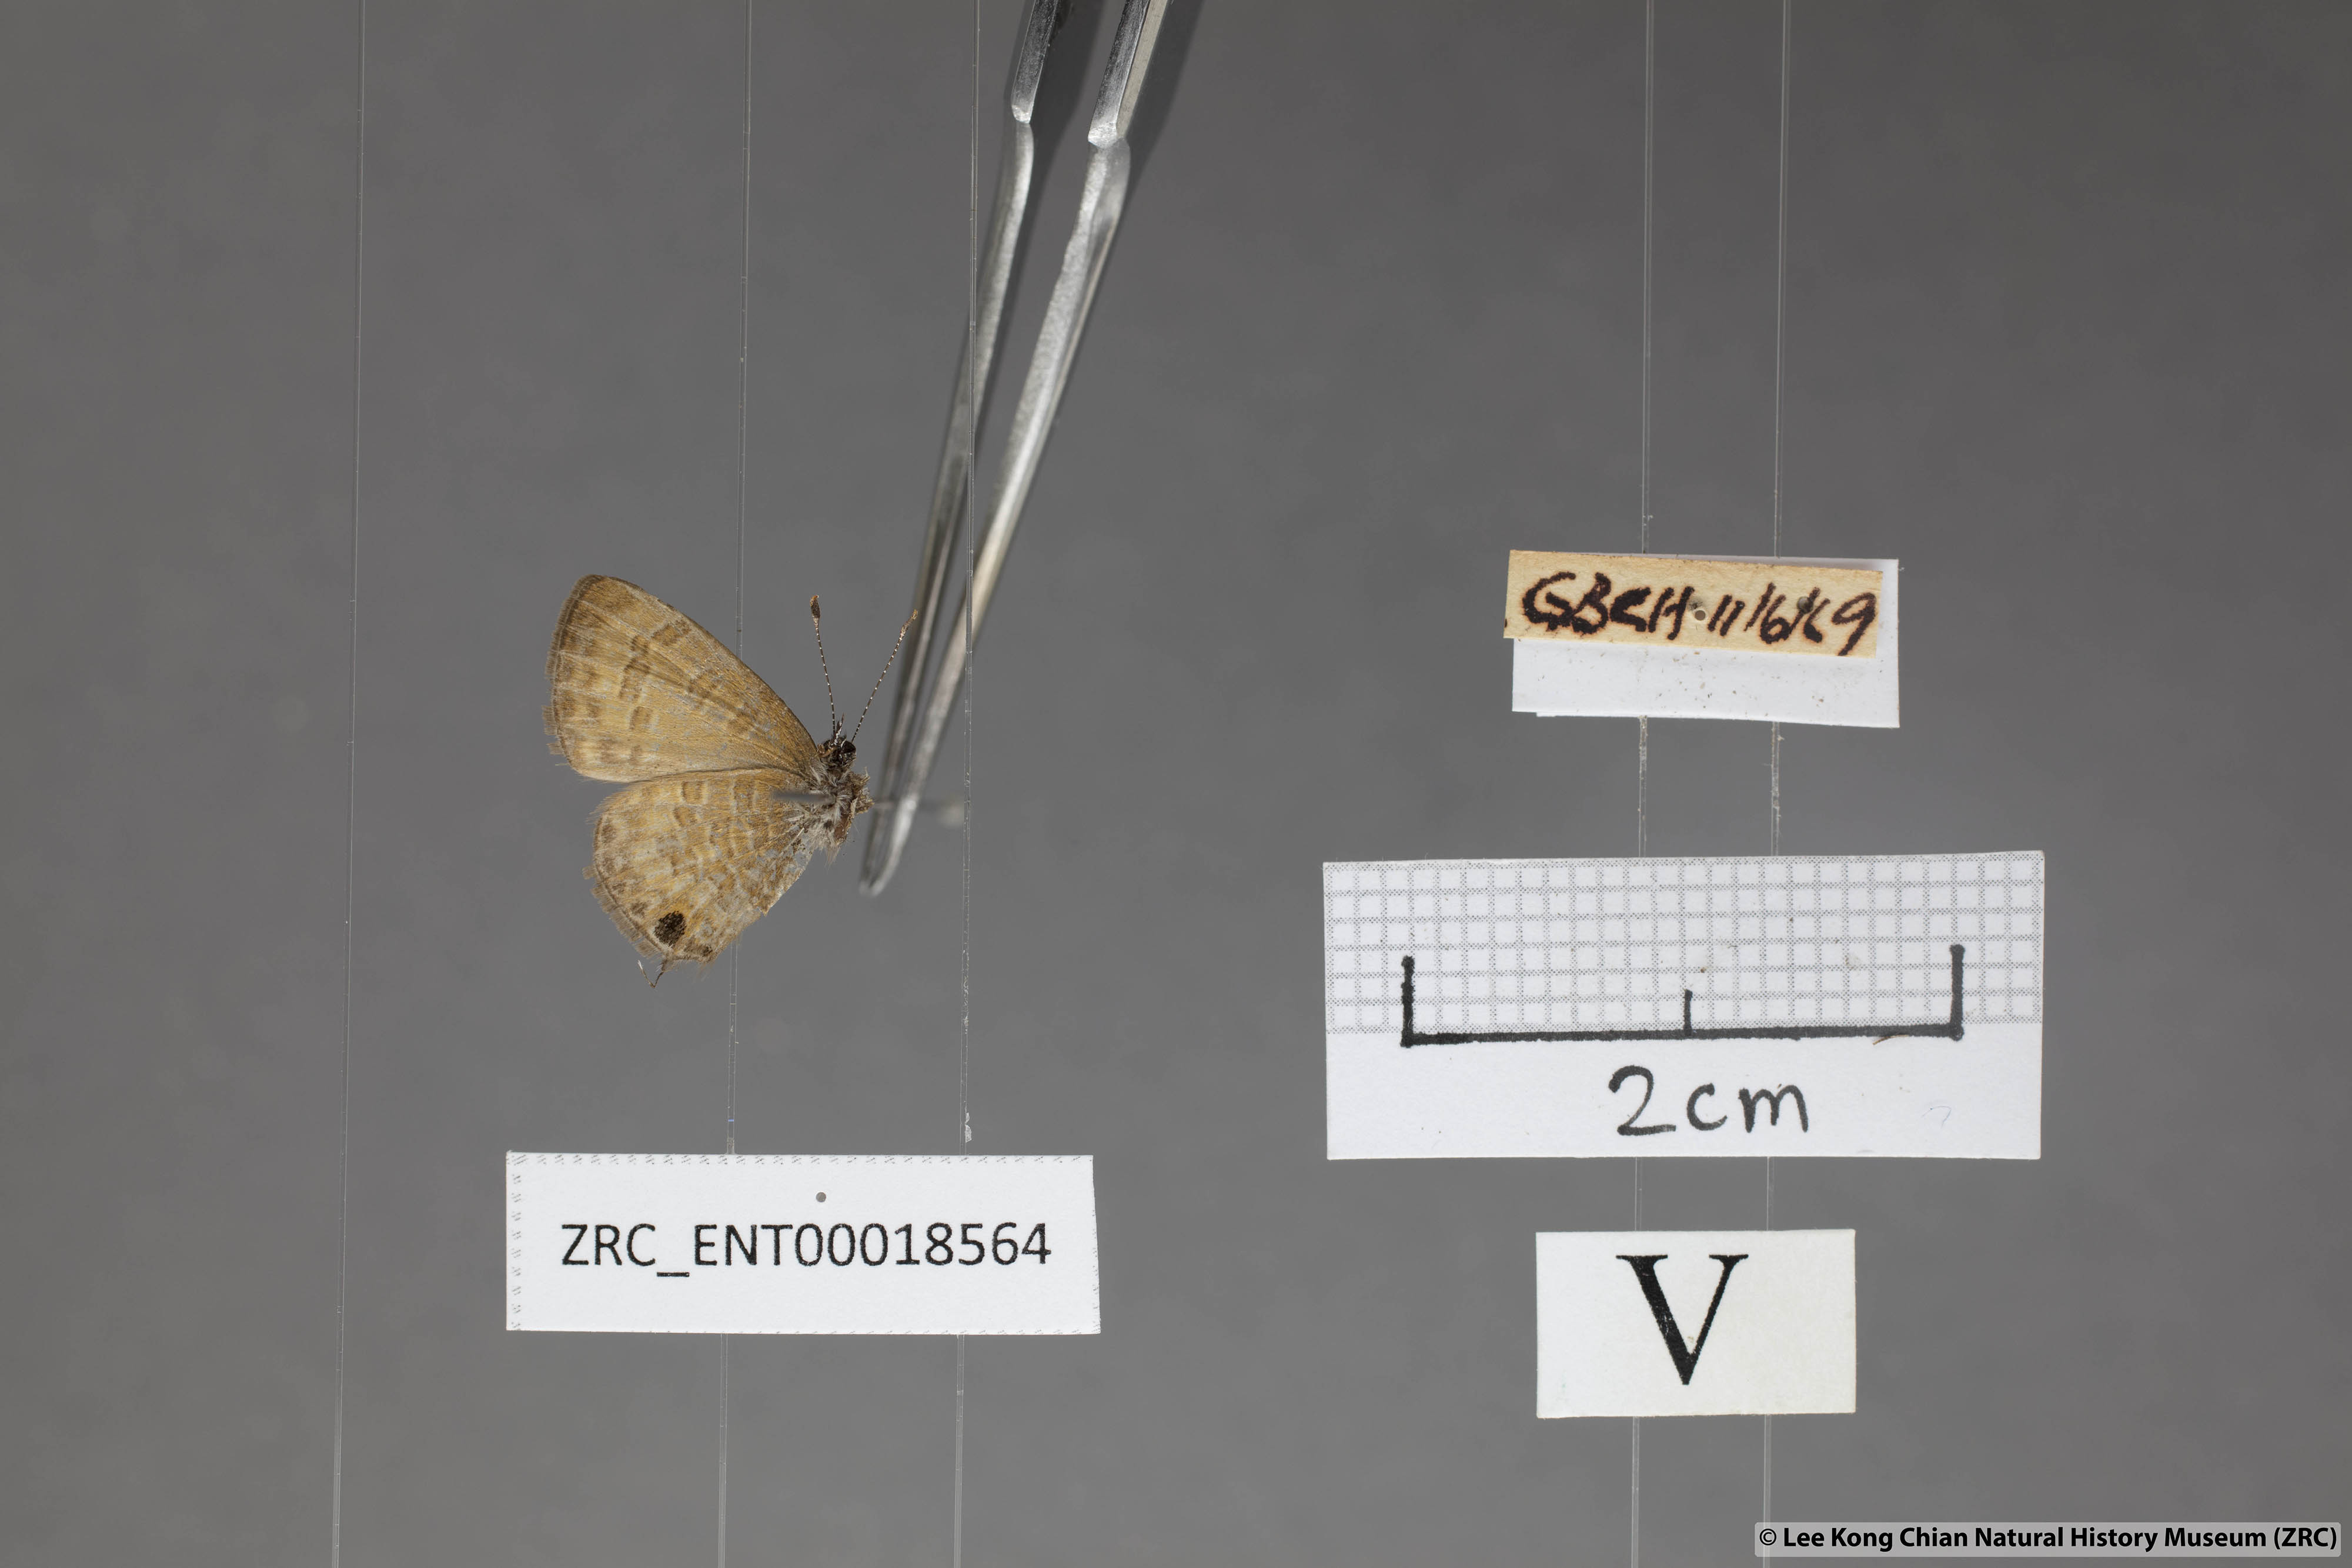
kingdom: Animalia
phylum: Arthropoda
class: Insecta
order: Lepidoptera
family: Lycaenidae
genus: Prosotas
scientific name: Prosotas bhutea
